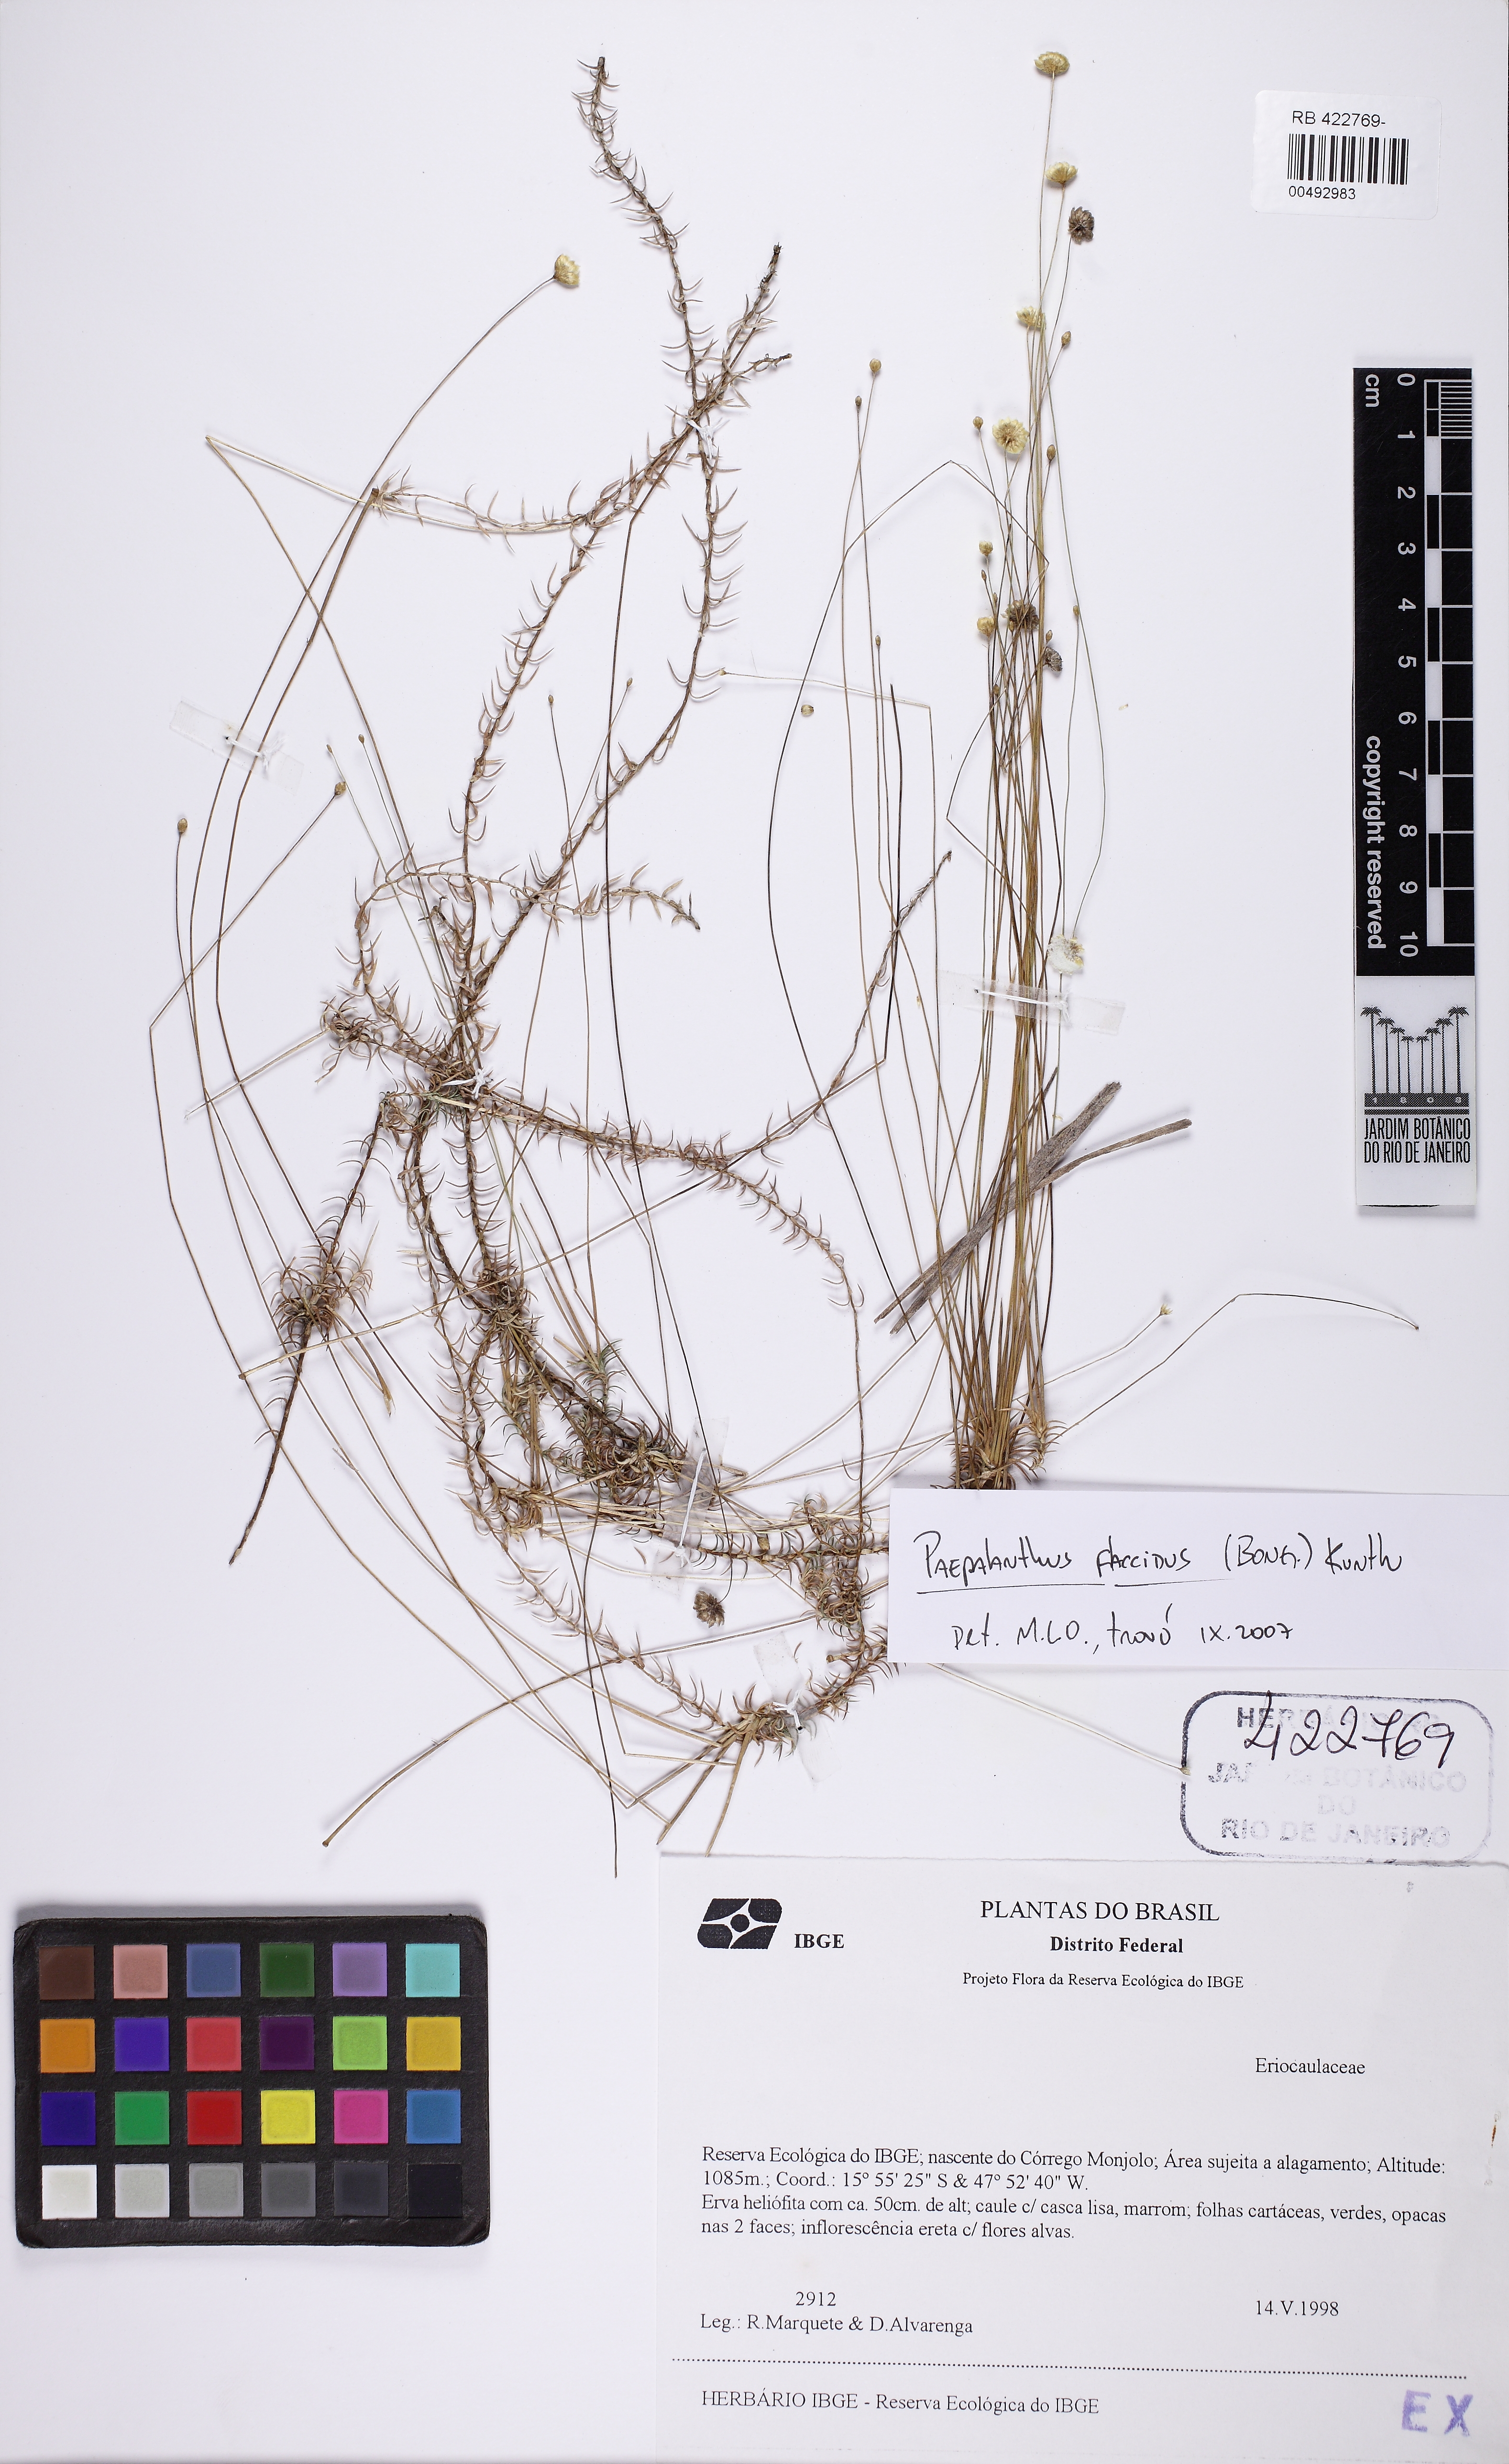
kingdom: Plantae
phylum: Tracheophyta
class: Liliopsida
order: Poales
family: Eriocaulaceae
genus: Paepalanthus
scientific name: Paepalanthus flaccidus
